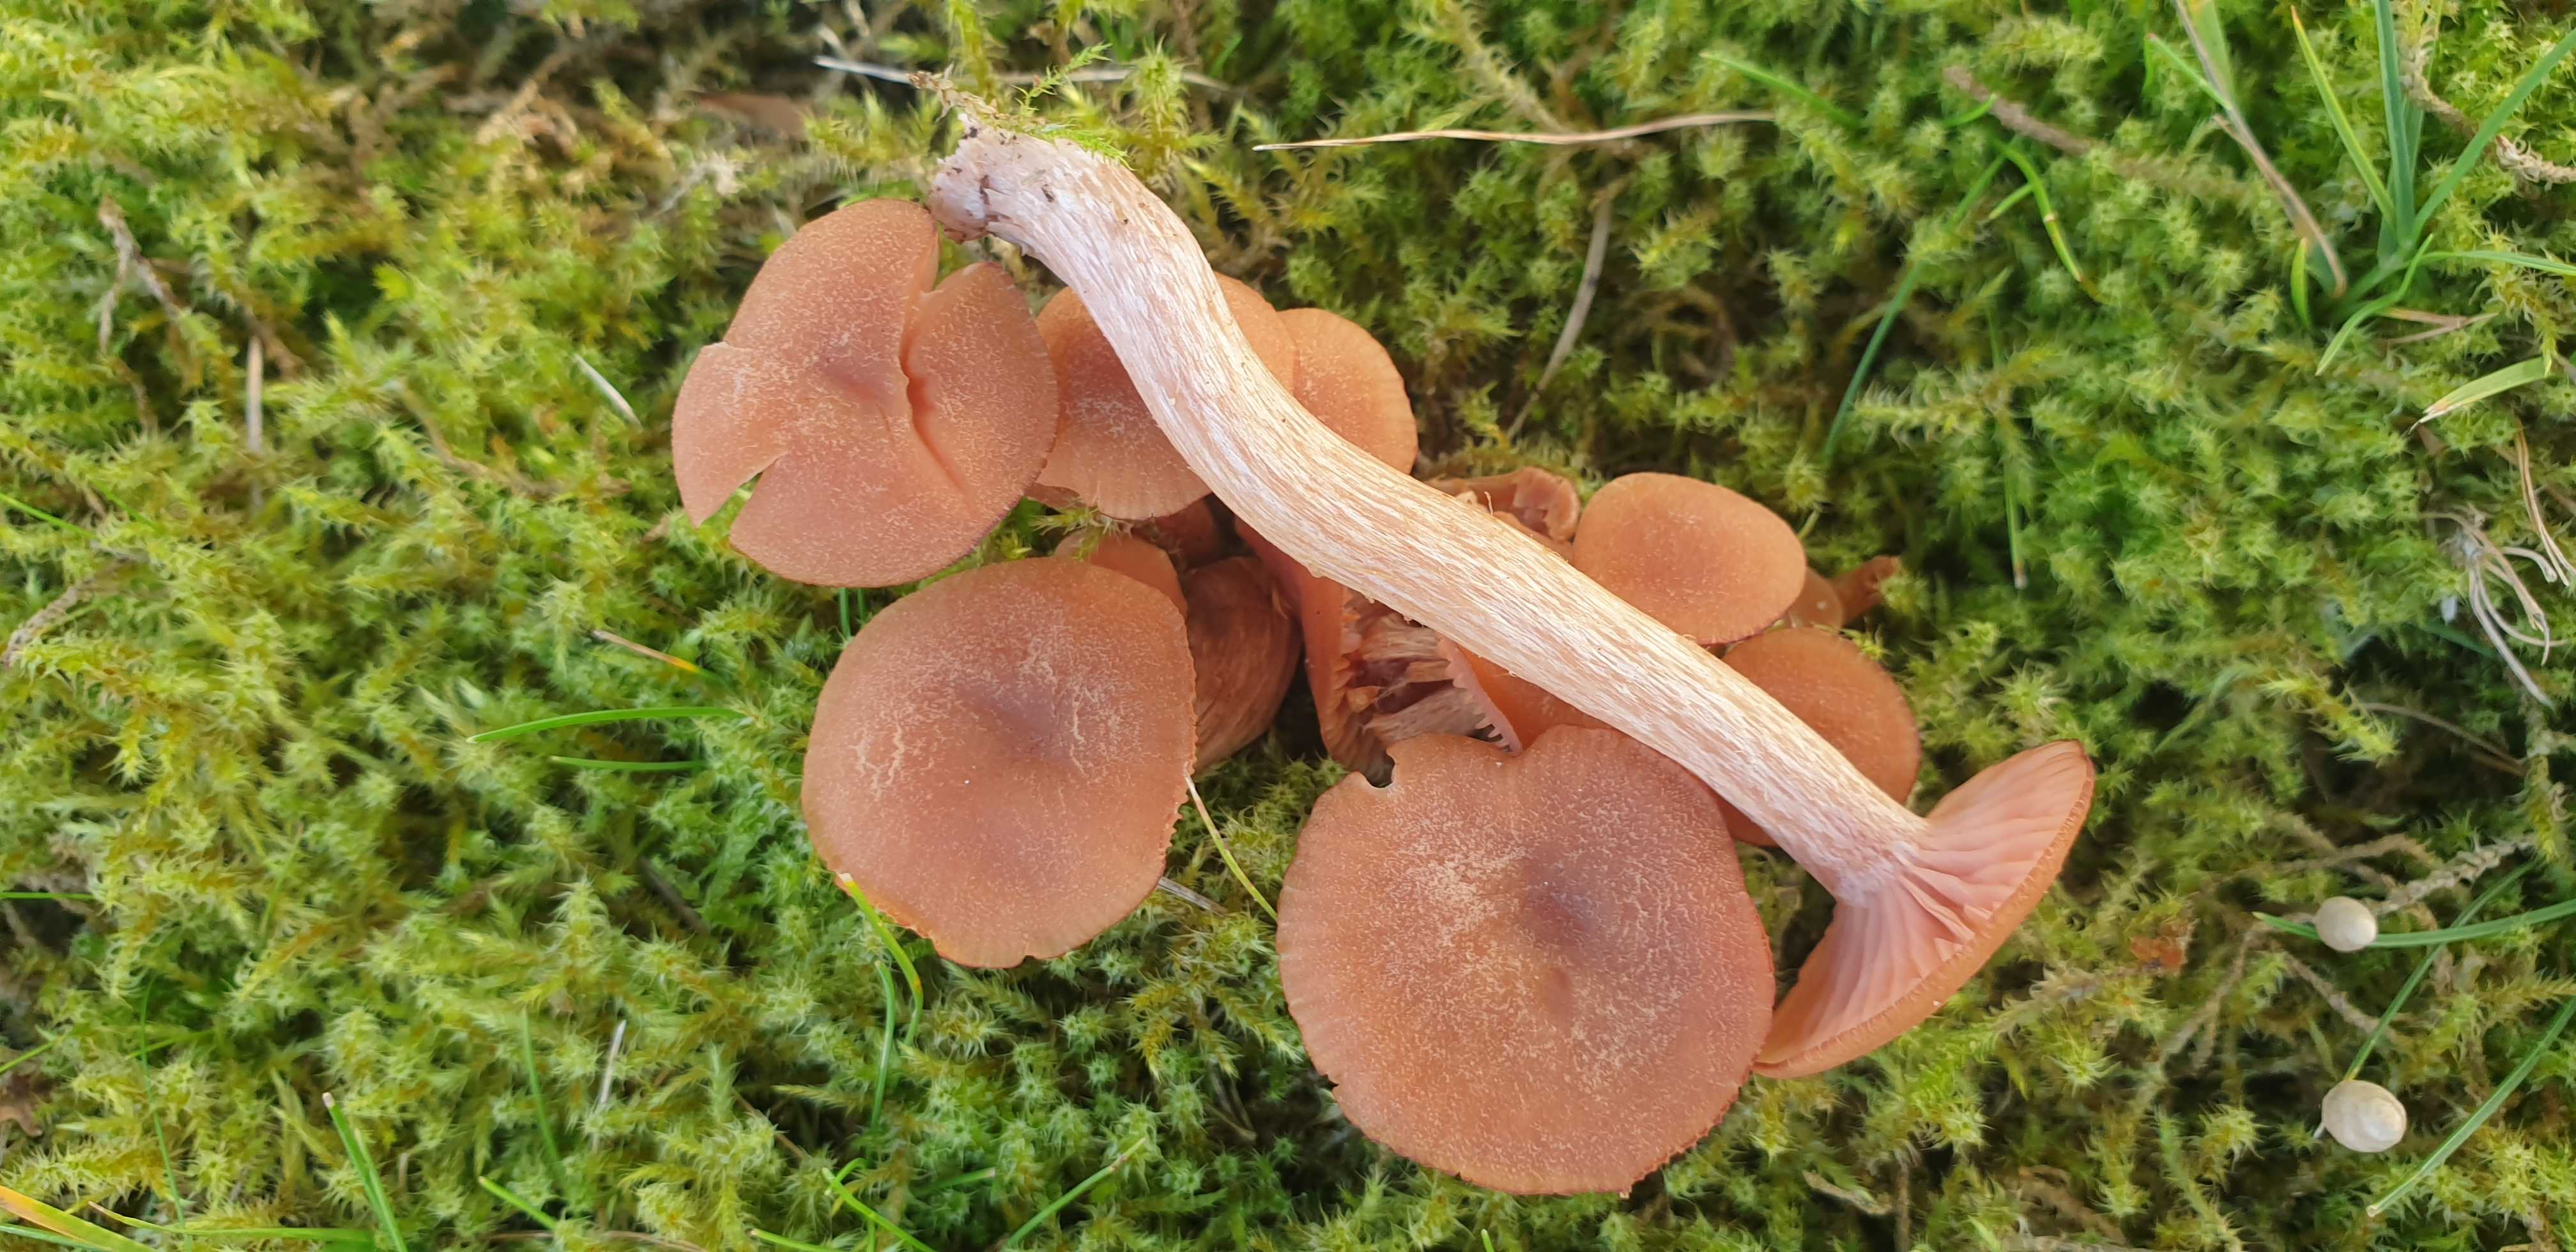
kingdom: Fungi
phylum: Basidiomycota
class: Agaricomycetes
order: Agaricales
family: Hydnangiaceae
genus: Laccaria
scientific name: Laccaria laccata
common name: rød ametysthat
